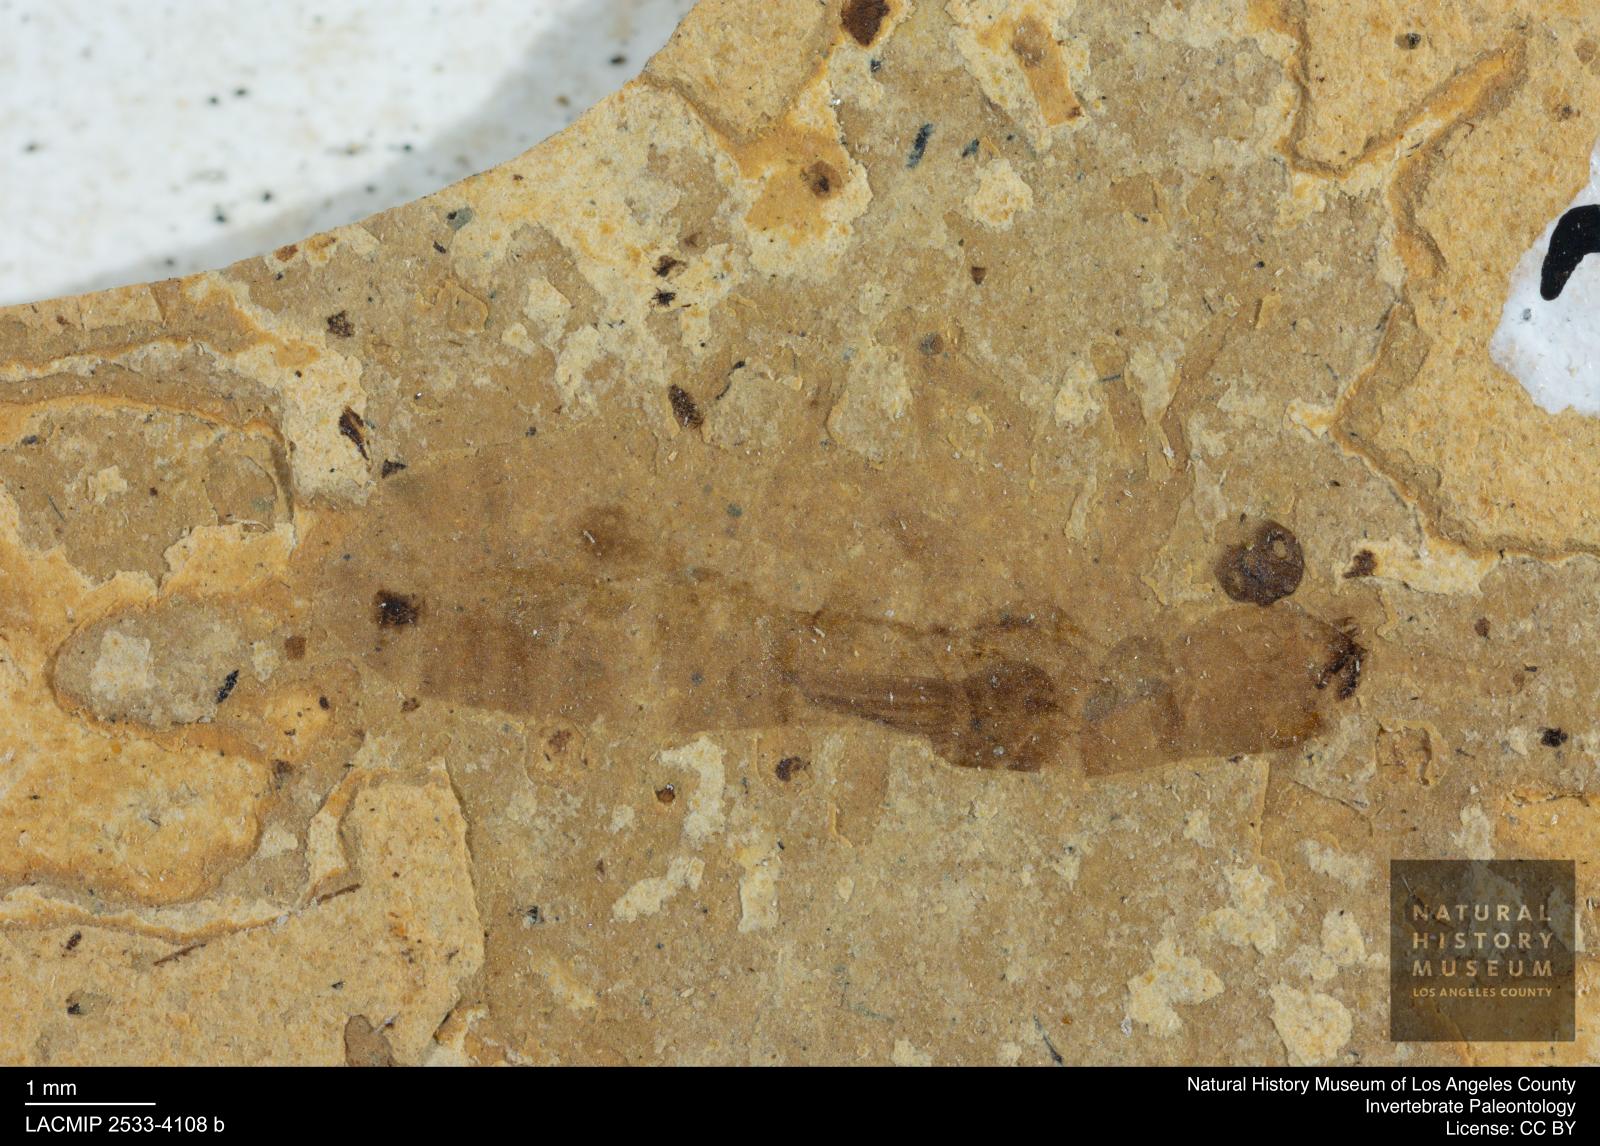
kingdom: Animalia
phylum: Arthropoda
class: Insecta
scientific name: Insecta
